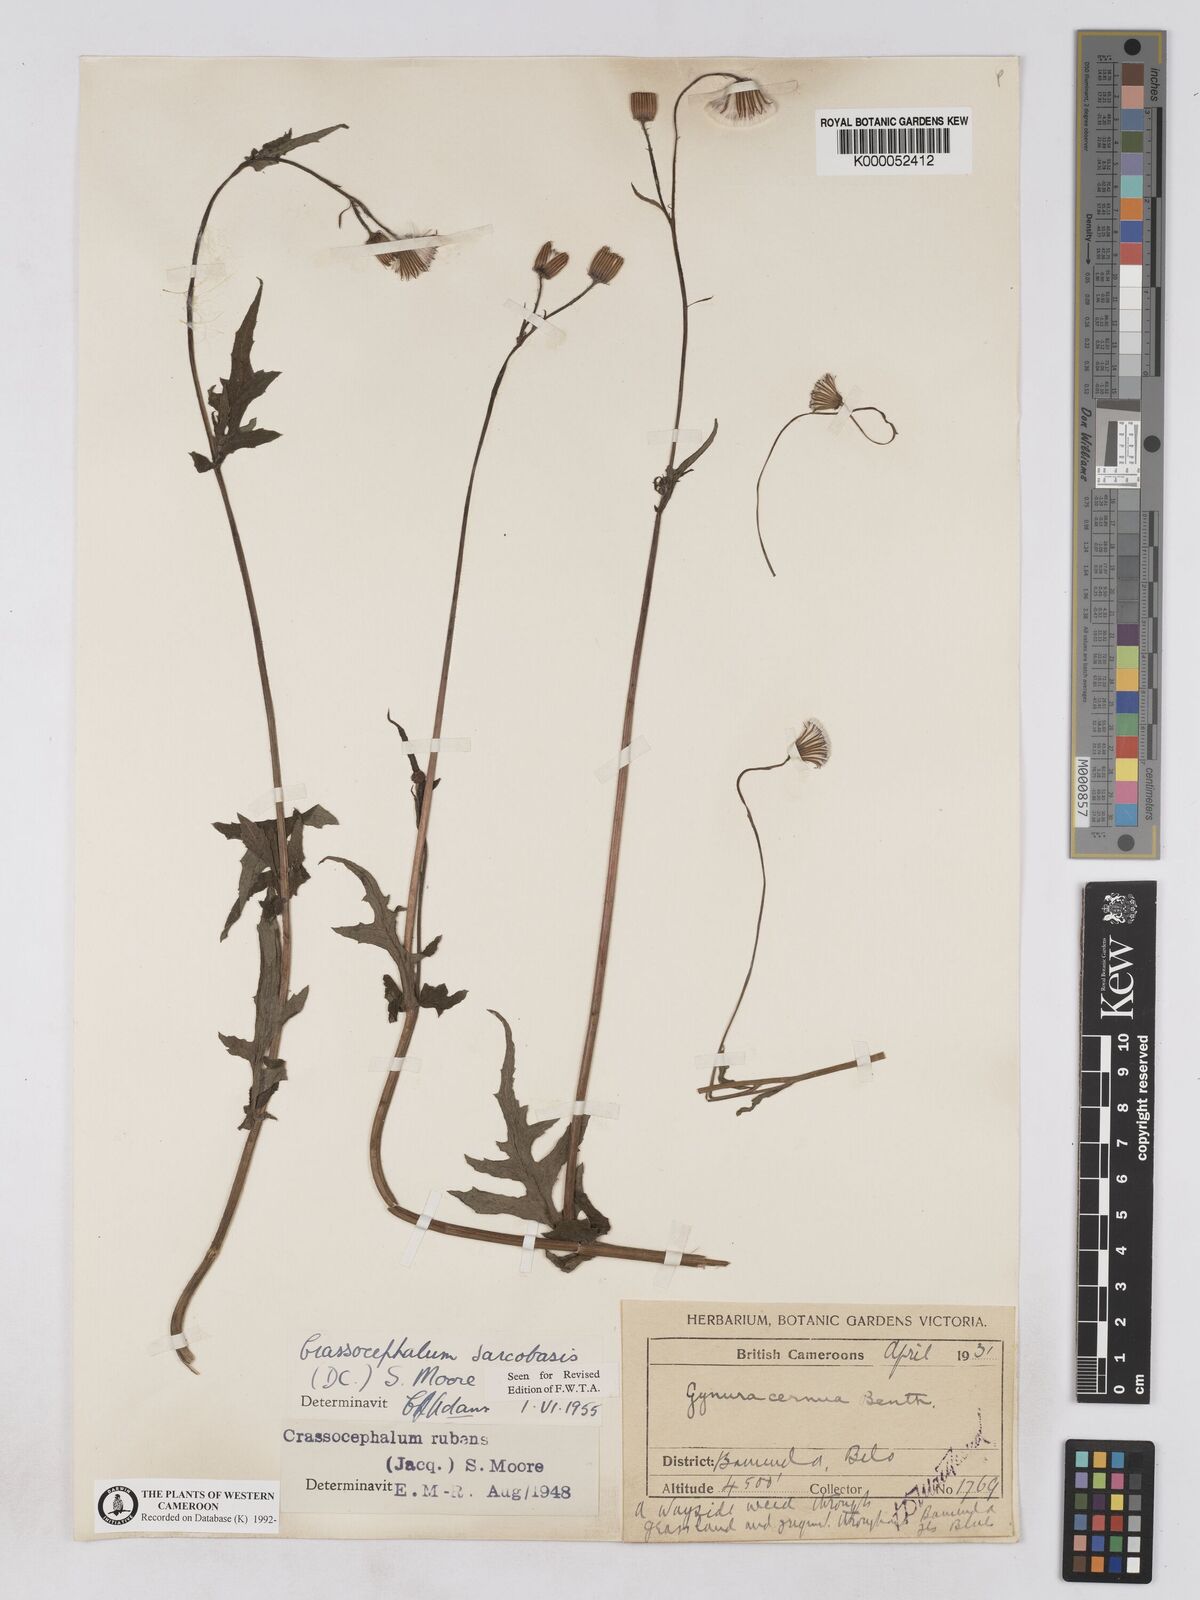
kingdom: Plantae
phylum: Tracheophyta
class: Magnoliopsida
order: Asterales
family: Asteraceae
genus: Crassocephalum
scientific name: Crassocephalum rubens
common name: Yoruban bologi
